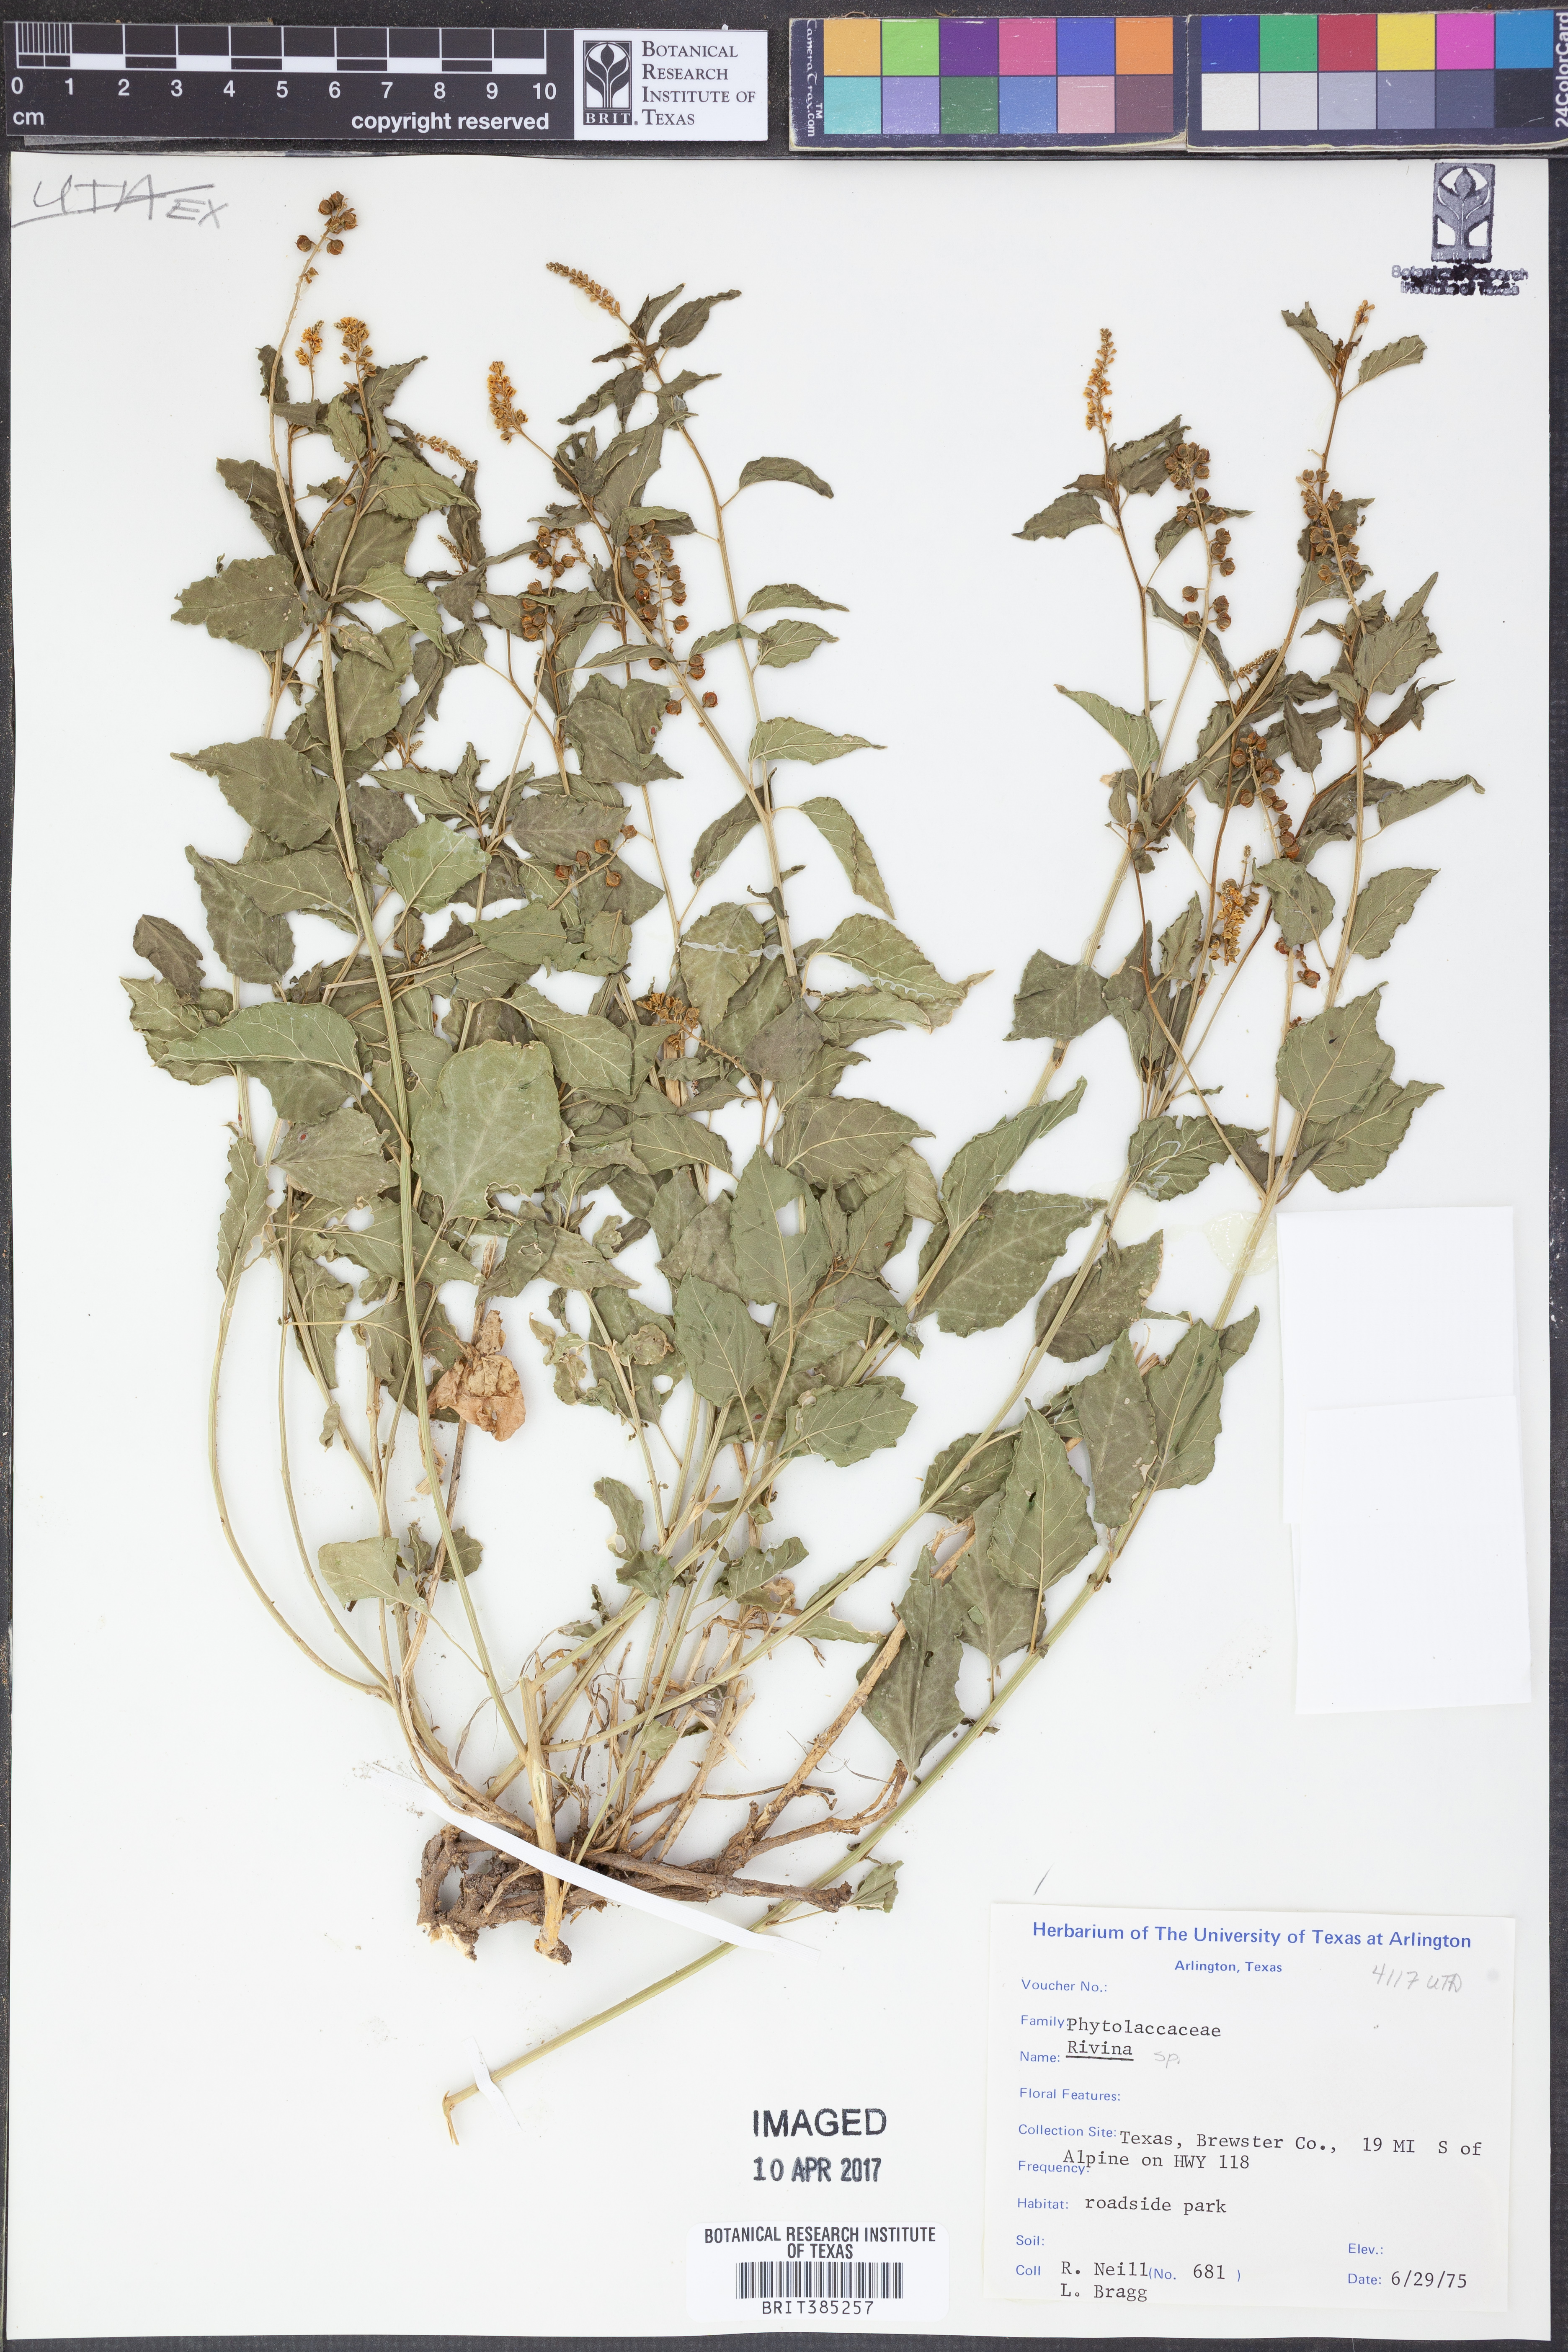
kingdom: Plantae
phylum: Tracheophyta
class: Magnoliopsida
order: Caryophyllales
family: Phytolaccaceae
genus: Rivina
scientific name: Rivina
